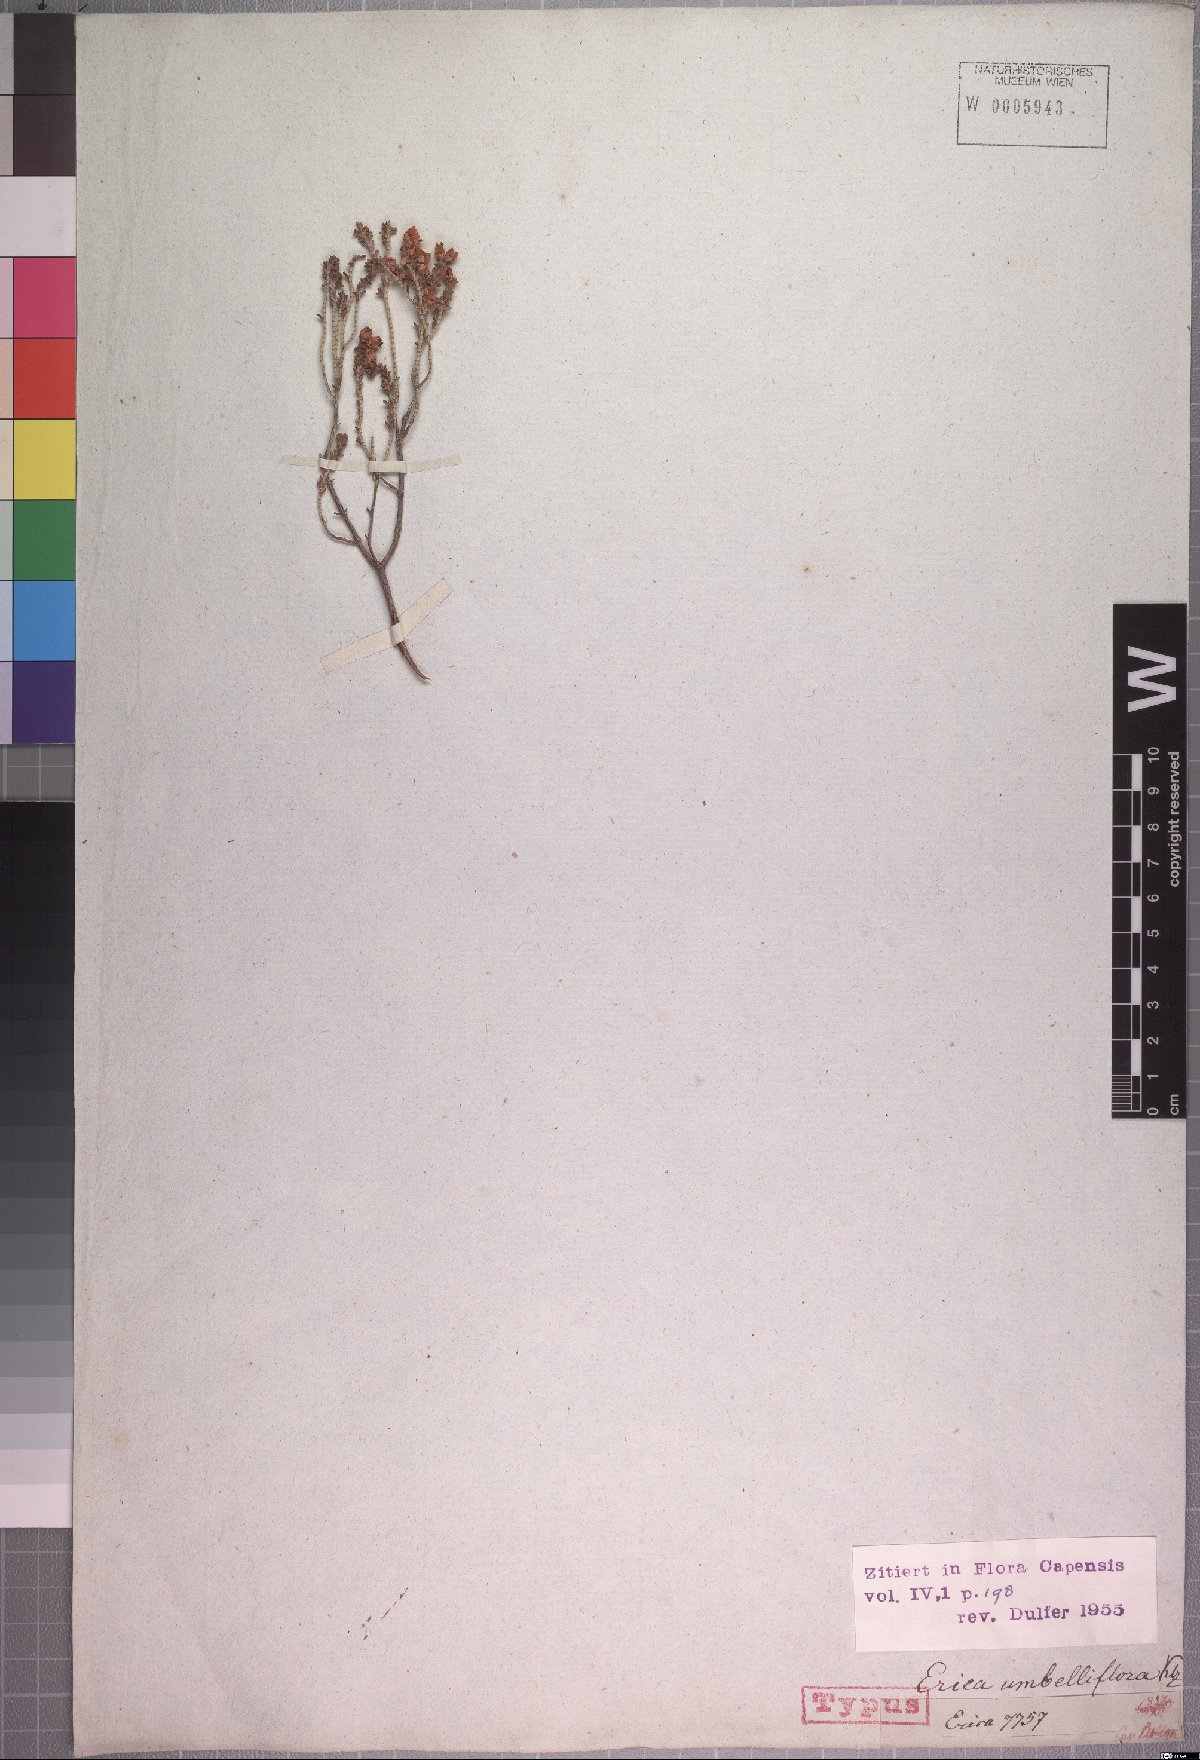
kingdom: Plantae
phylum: Tracheophyta
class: Magnoliopsida
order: Ericales
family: Ericaceae
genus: Erica
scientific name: Erica umbelliflora
